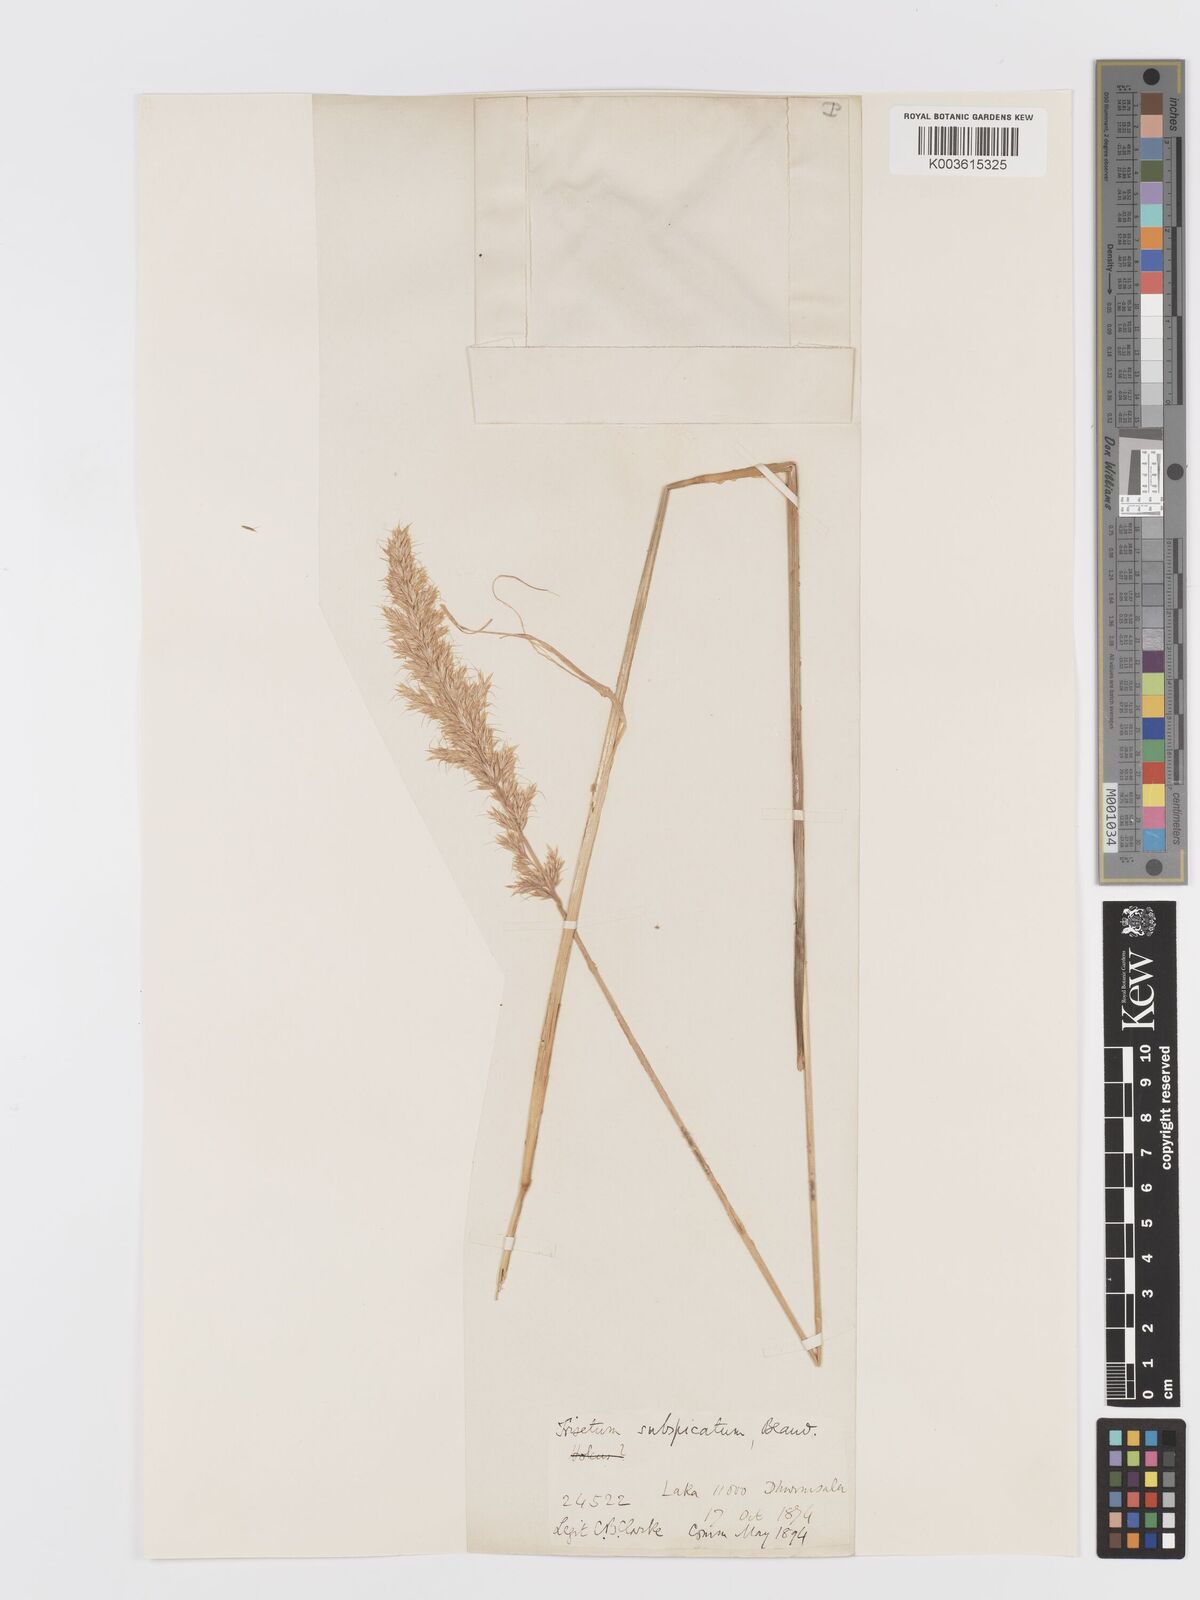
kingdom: Plantae
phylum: Tracheophyta
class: Liliopsida
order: Poales
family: Poaceae
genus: Koeleria
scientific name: Koeleria spicata
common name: Mountain trisetum
